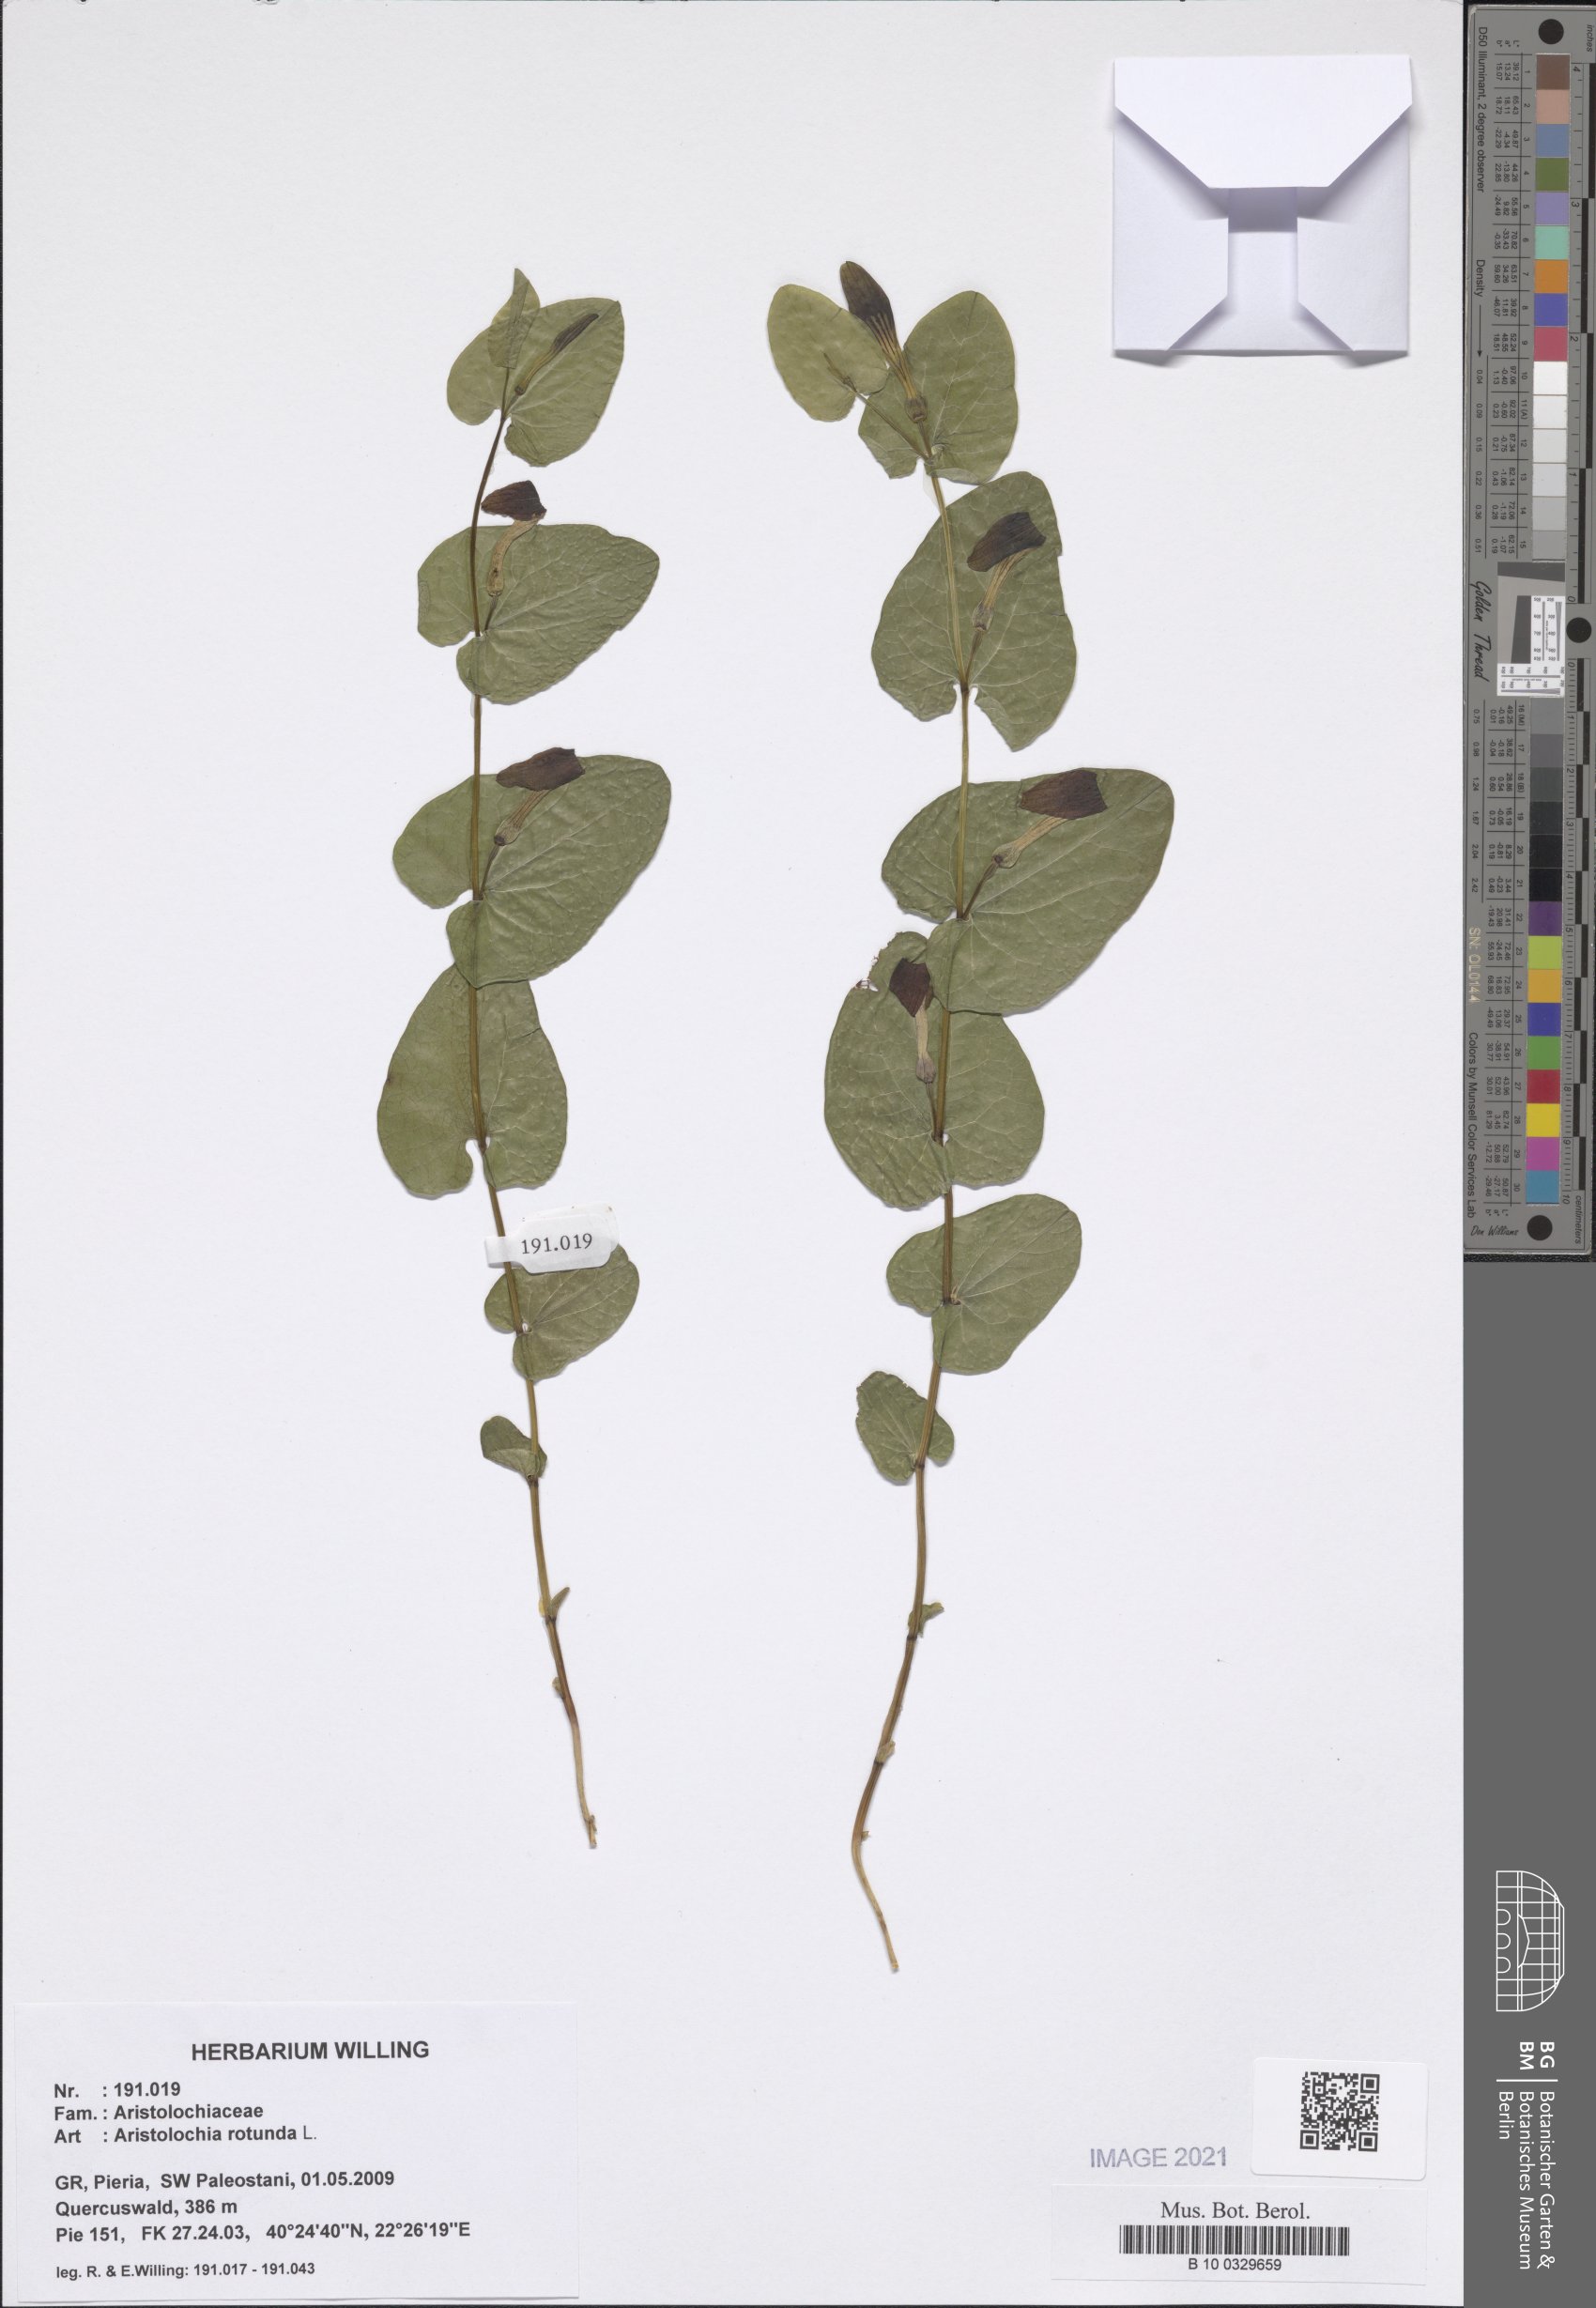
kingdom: Plantae
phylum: Tracheophyta
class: Magnoliopsida
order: Piperales
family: Aristolochiaceae
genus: Aristolochia
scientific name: Aristolochia rotunda
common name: Smearwort
